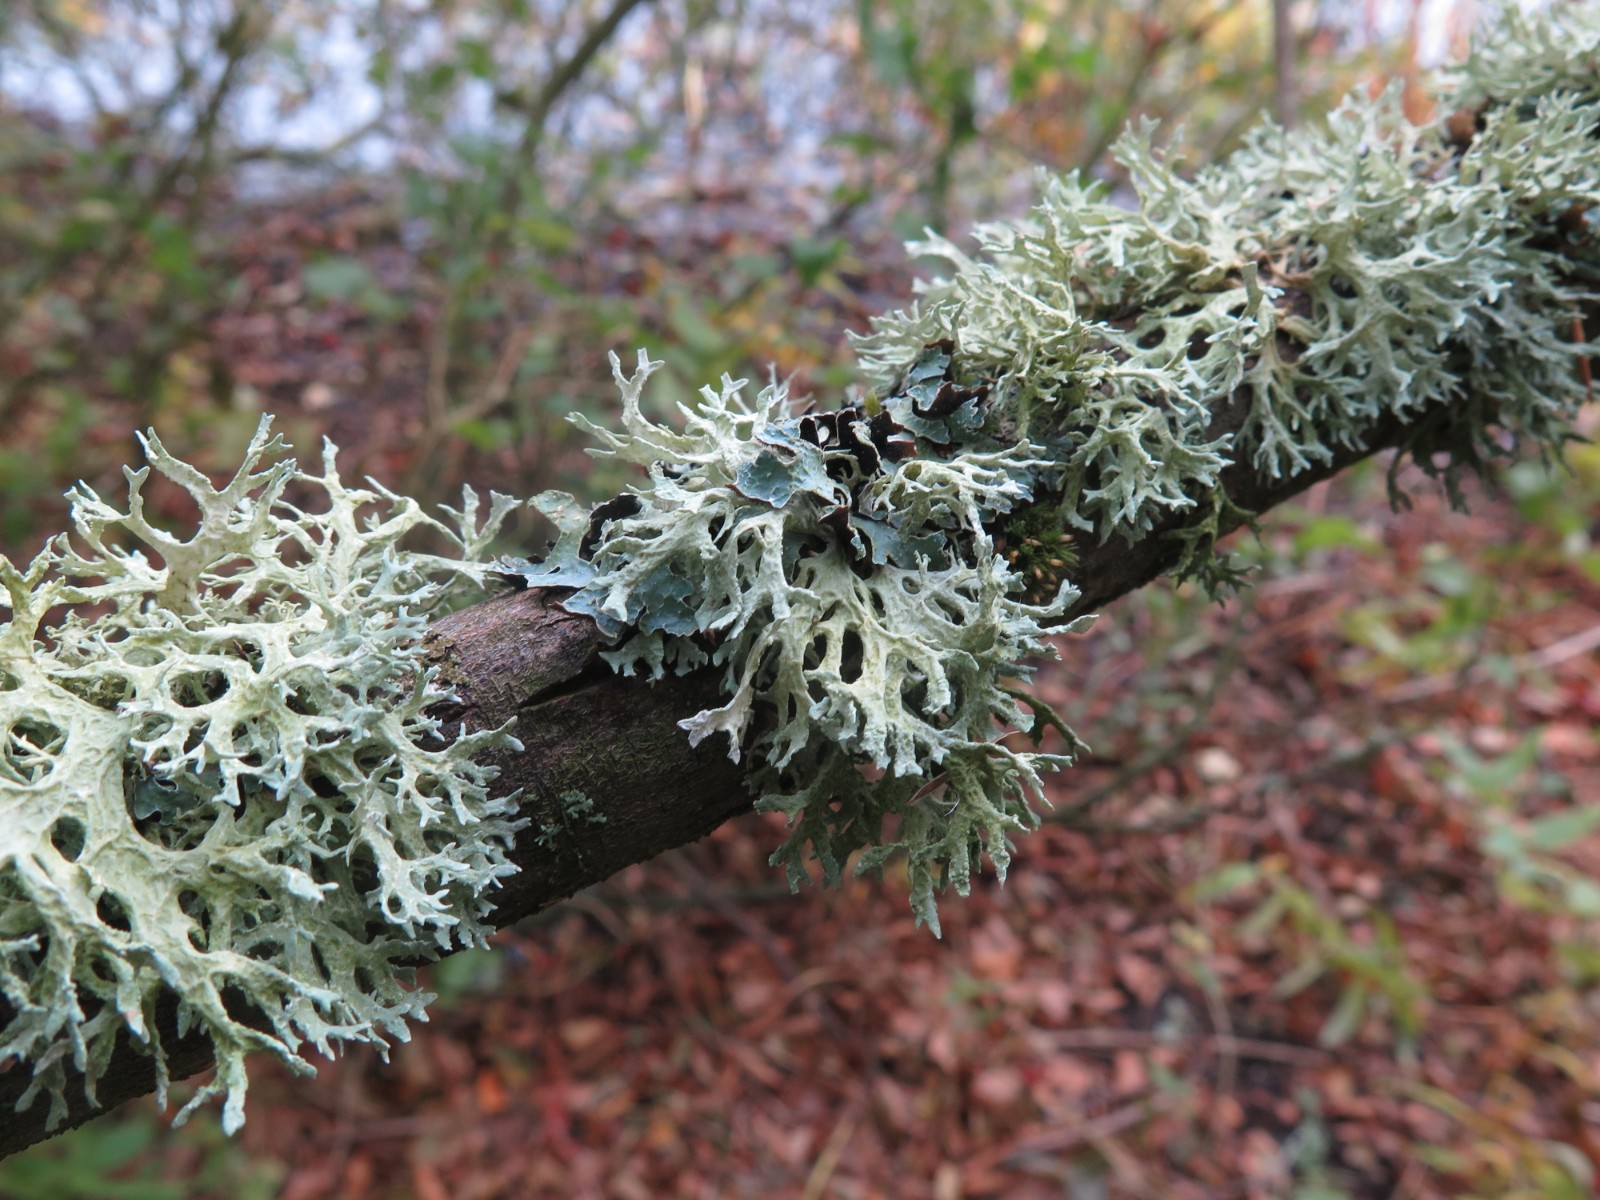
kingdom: Fungi
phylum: Ascomycota
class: Lecanoromycetes
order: Lecanorales
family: Parmeliaceae
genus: Evernia
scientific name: Evernia prunastri
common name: almindelig slåenlav
